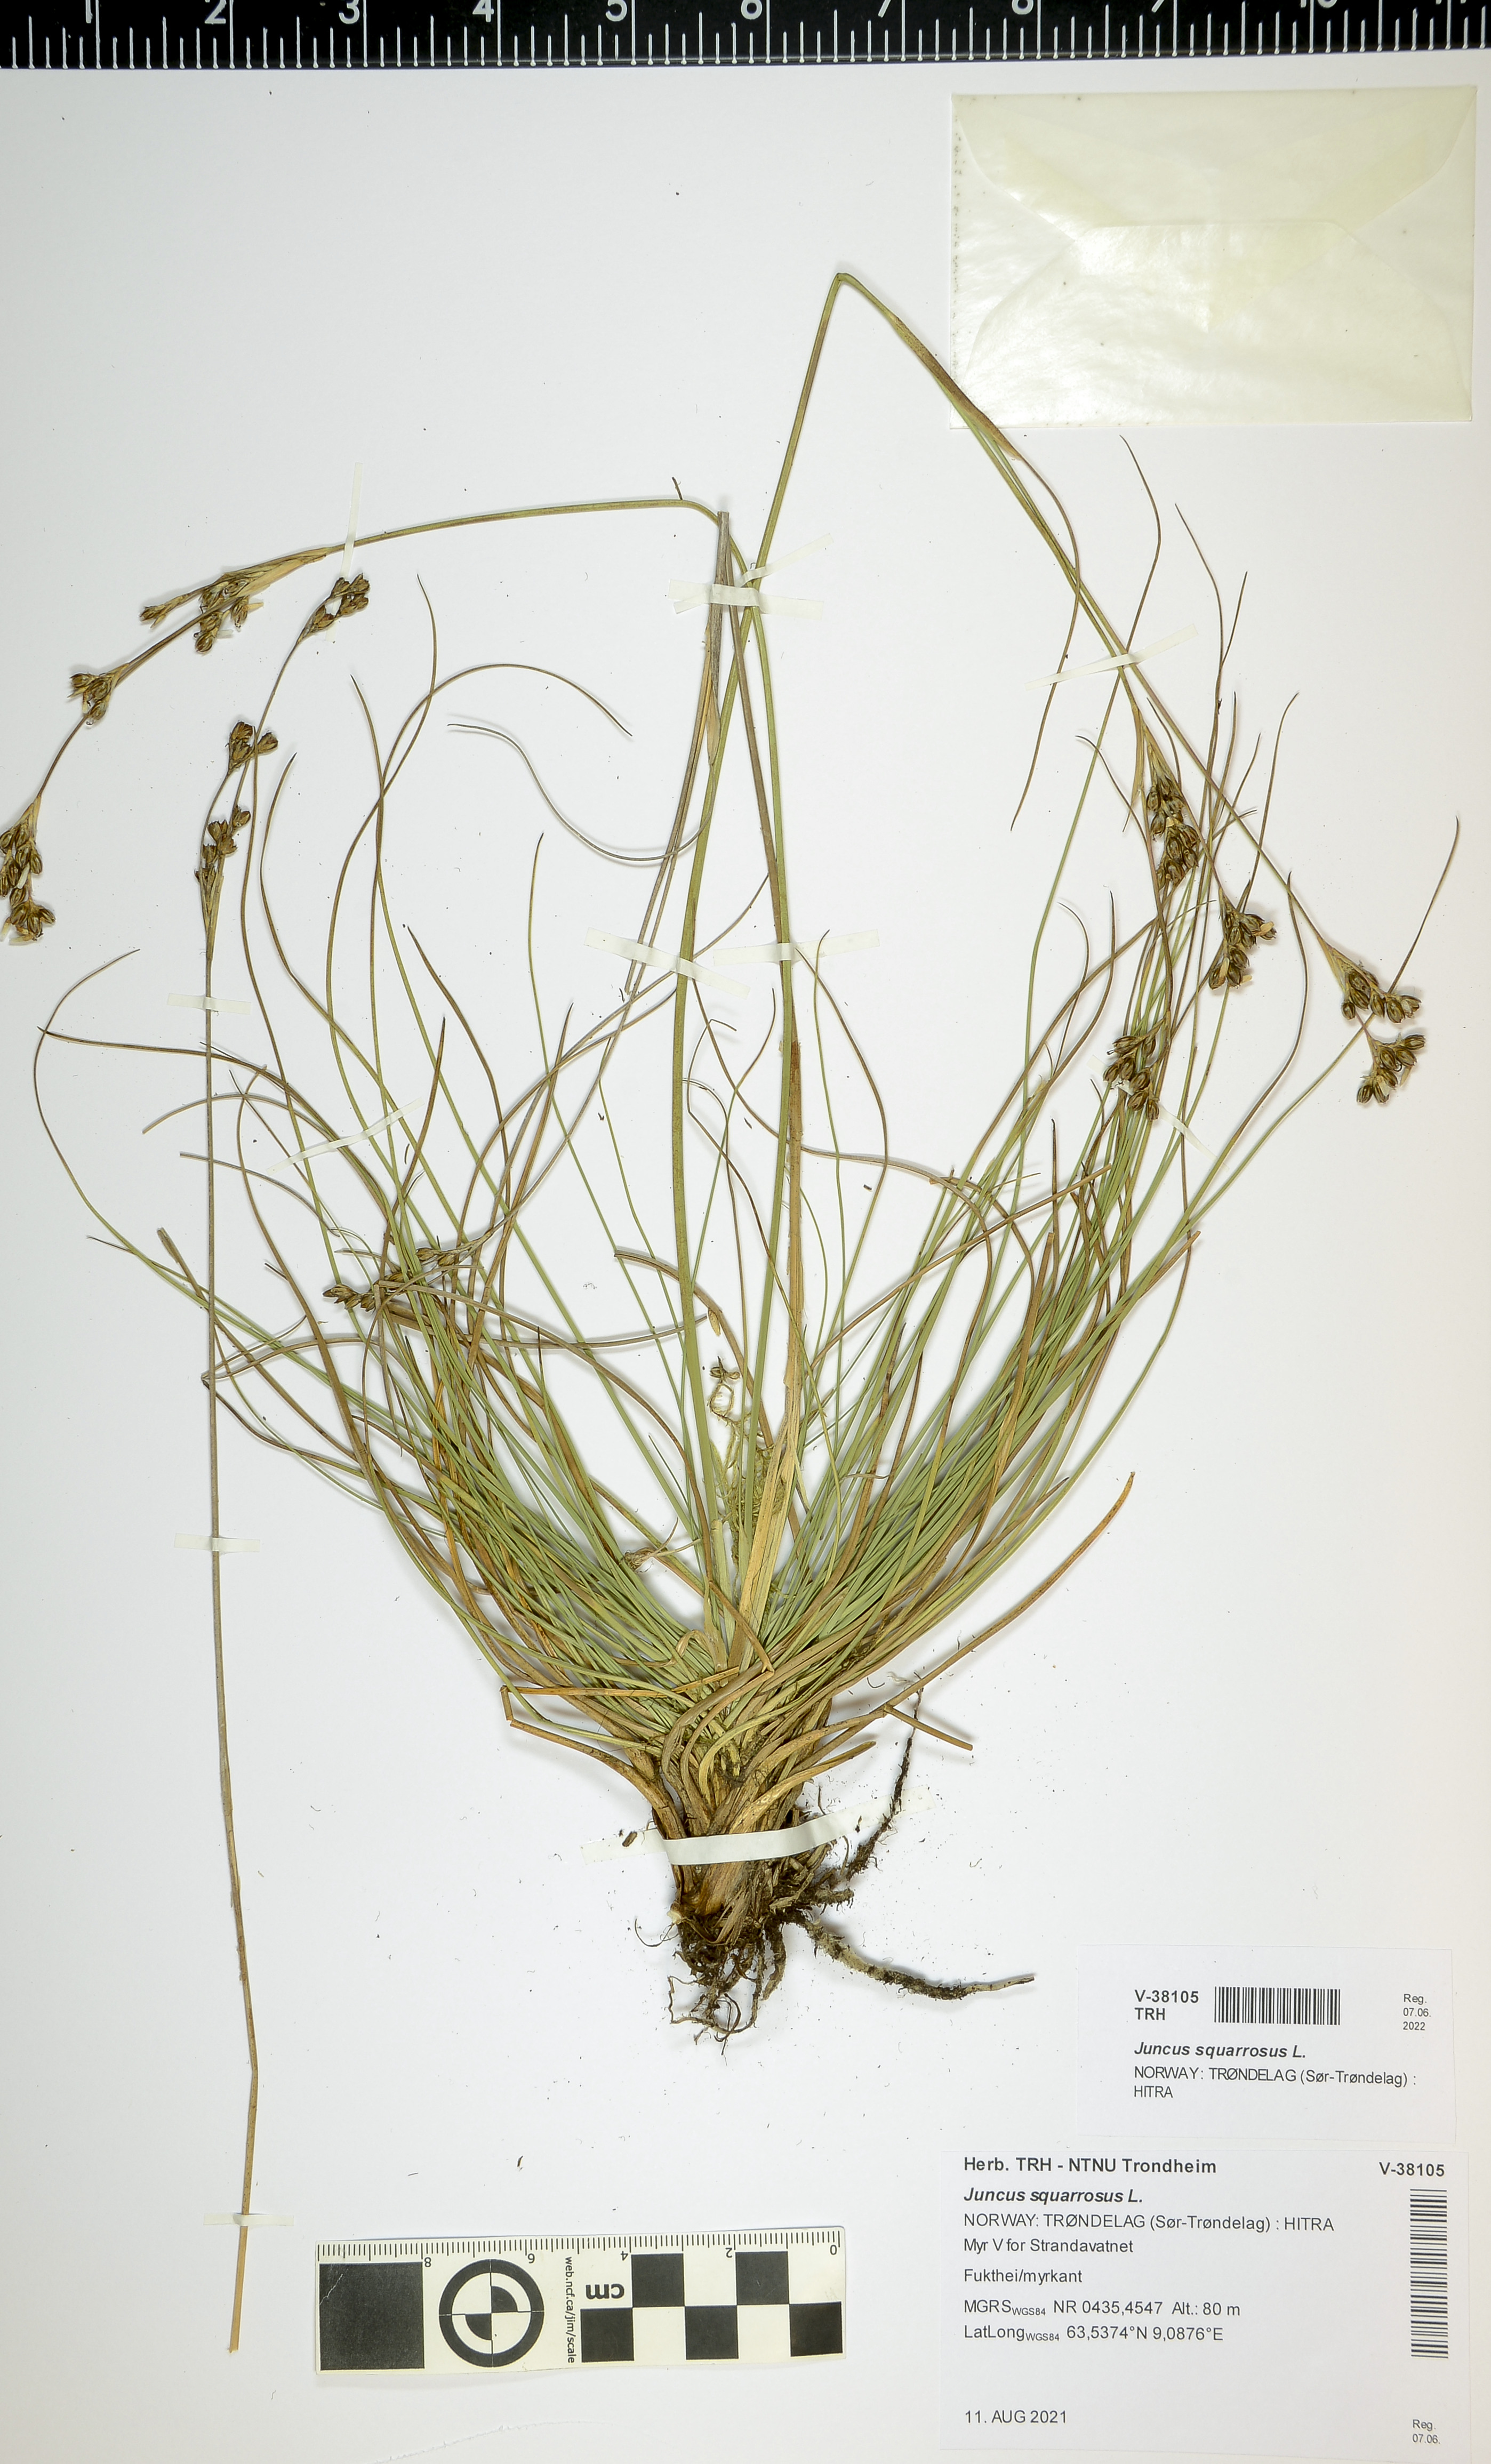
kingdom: Plantae
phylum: Tracheophyta
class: Liliopsida
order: Poales
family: Juncaceae
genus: Juncus
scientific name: Juncus squarrosus
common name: Heath rush
